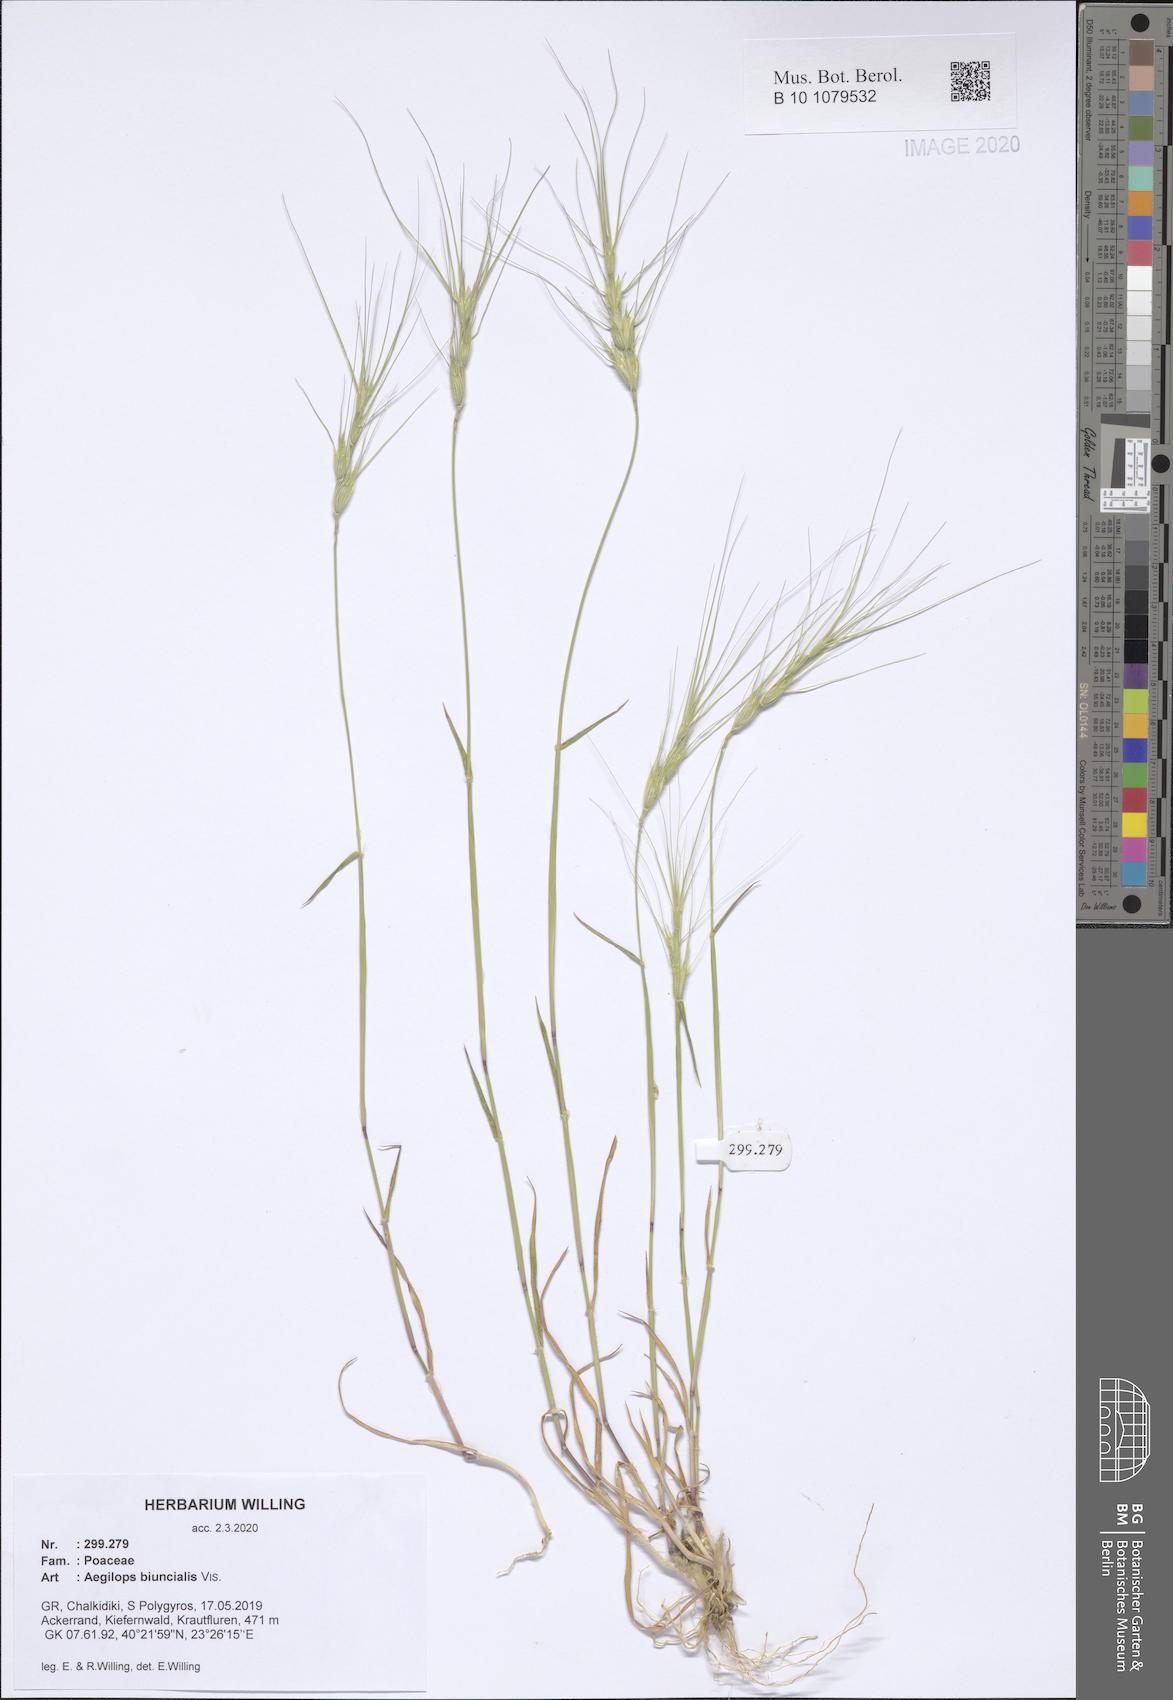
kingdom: Plantae
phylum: Tracheophyta
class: Liliopsida
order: Poales
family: Poaceae
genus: Aegilops
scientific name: Aegilops biuncialis
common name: Mediterranean aegilops
